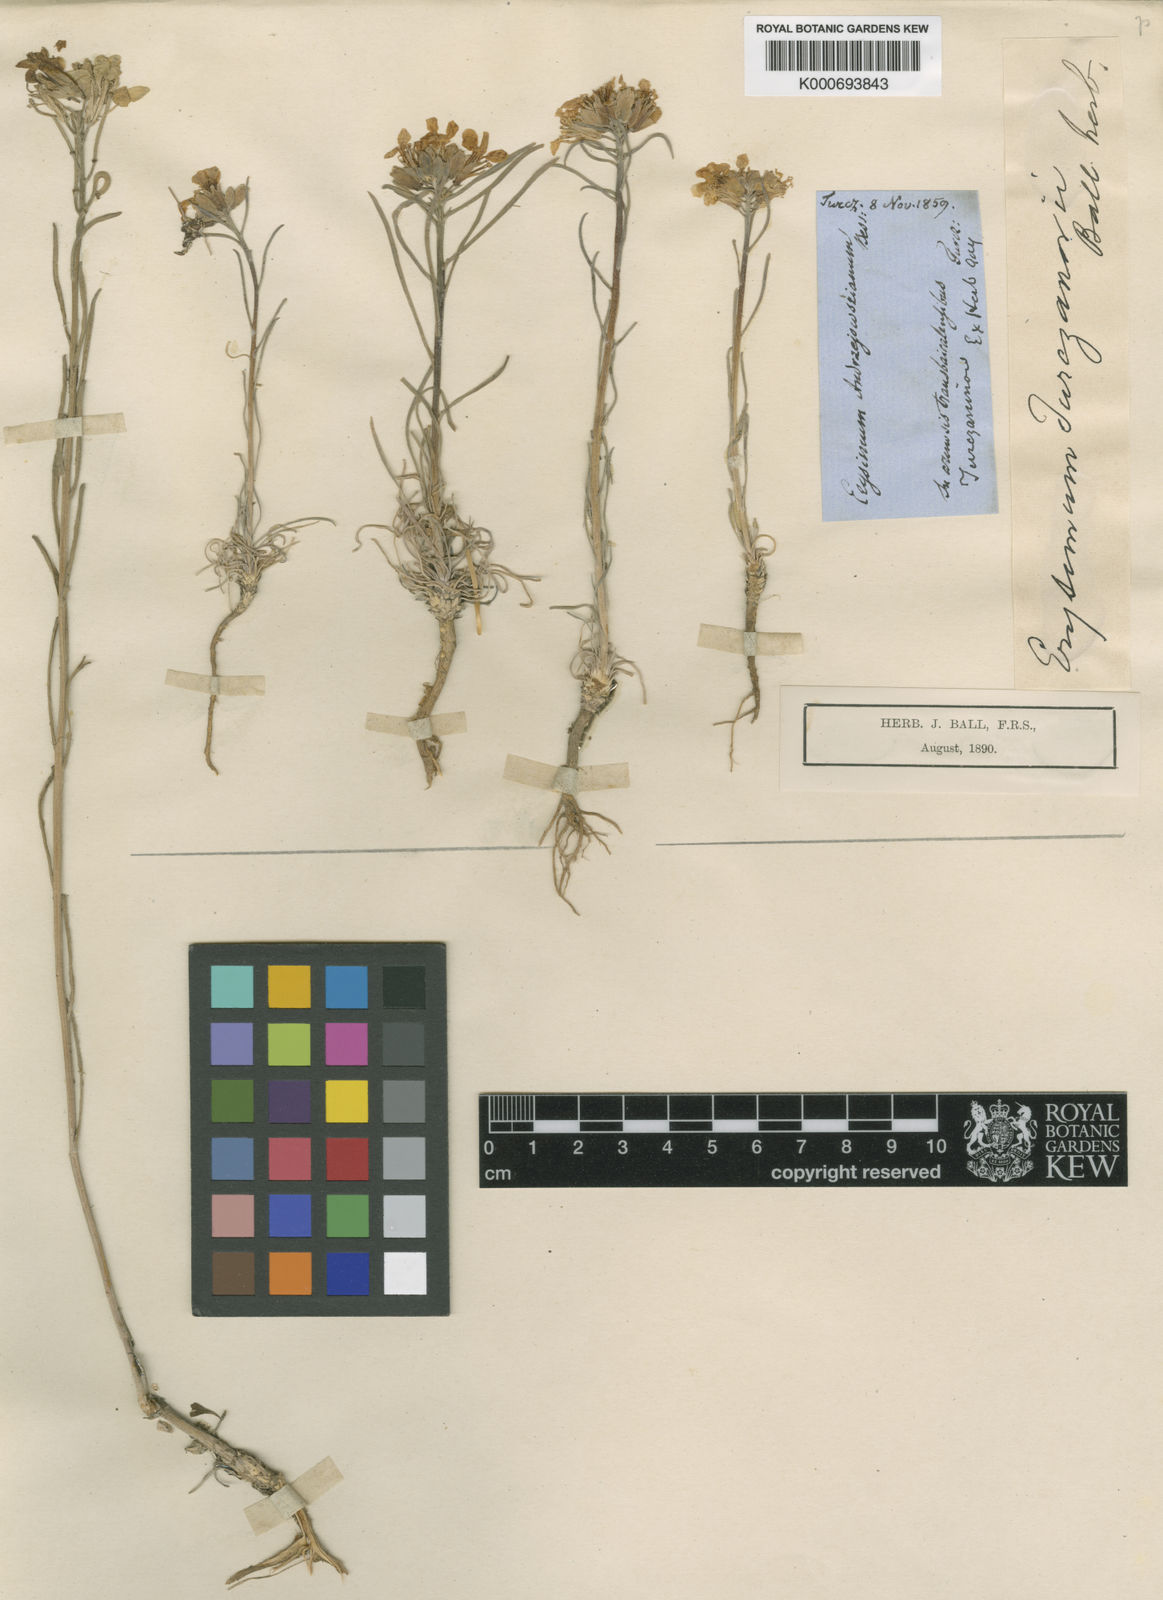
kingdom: Plantae
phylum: Tracheophyta
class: Magnoliopsida
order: Brassicales
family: Brassicaceae
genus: Erysimum
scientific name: Erysimum
